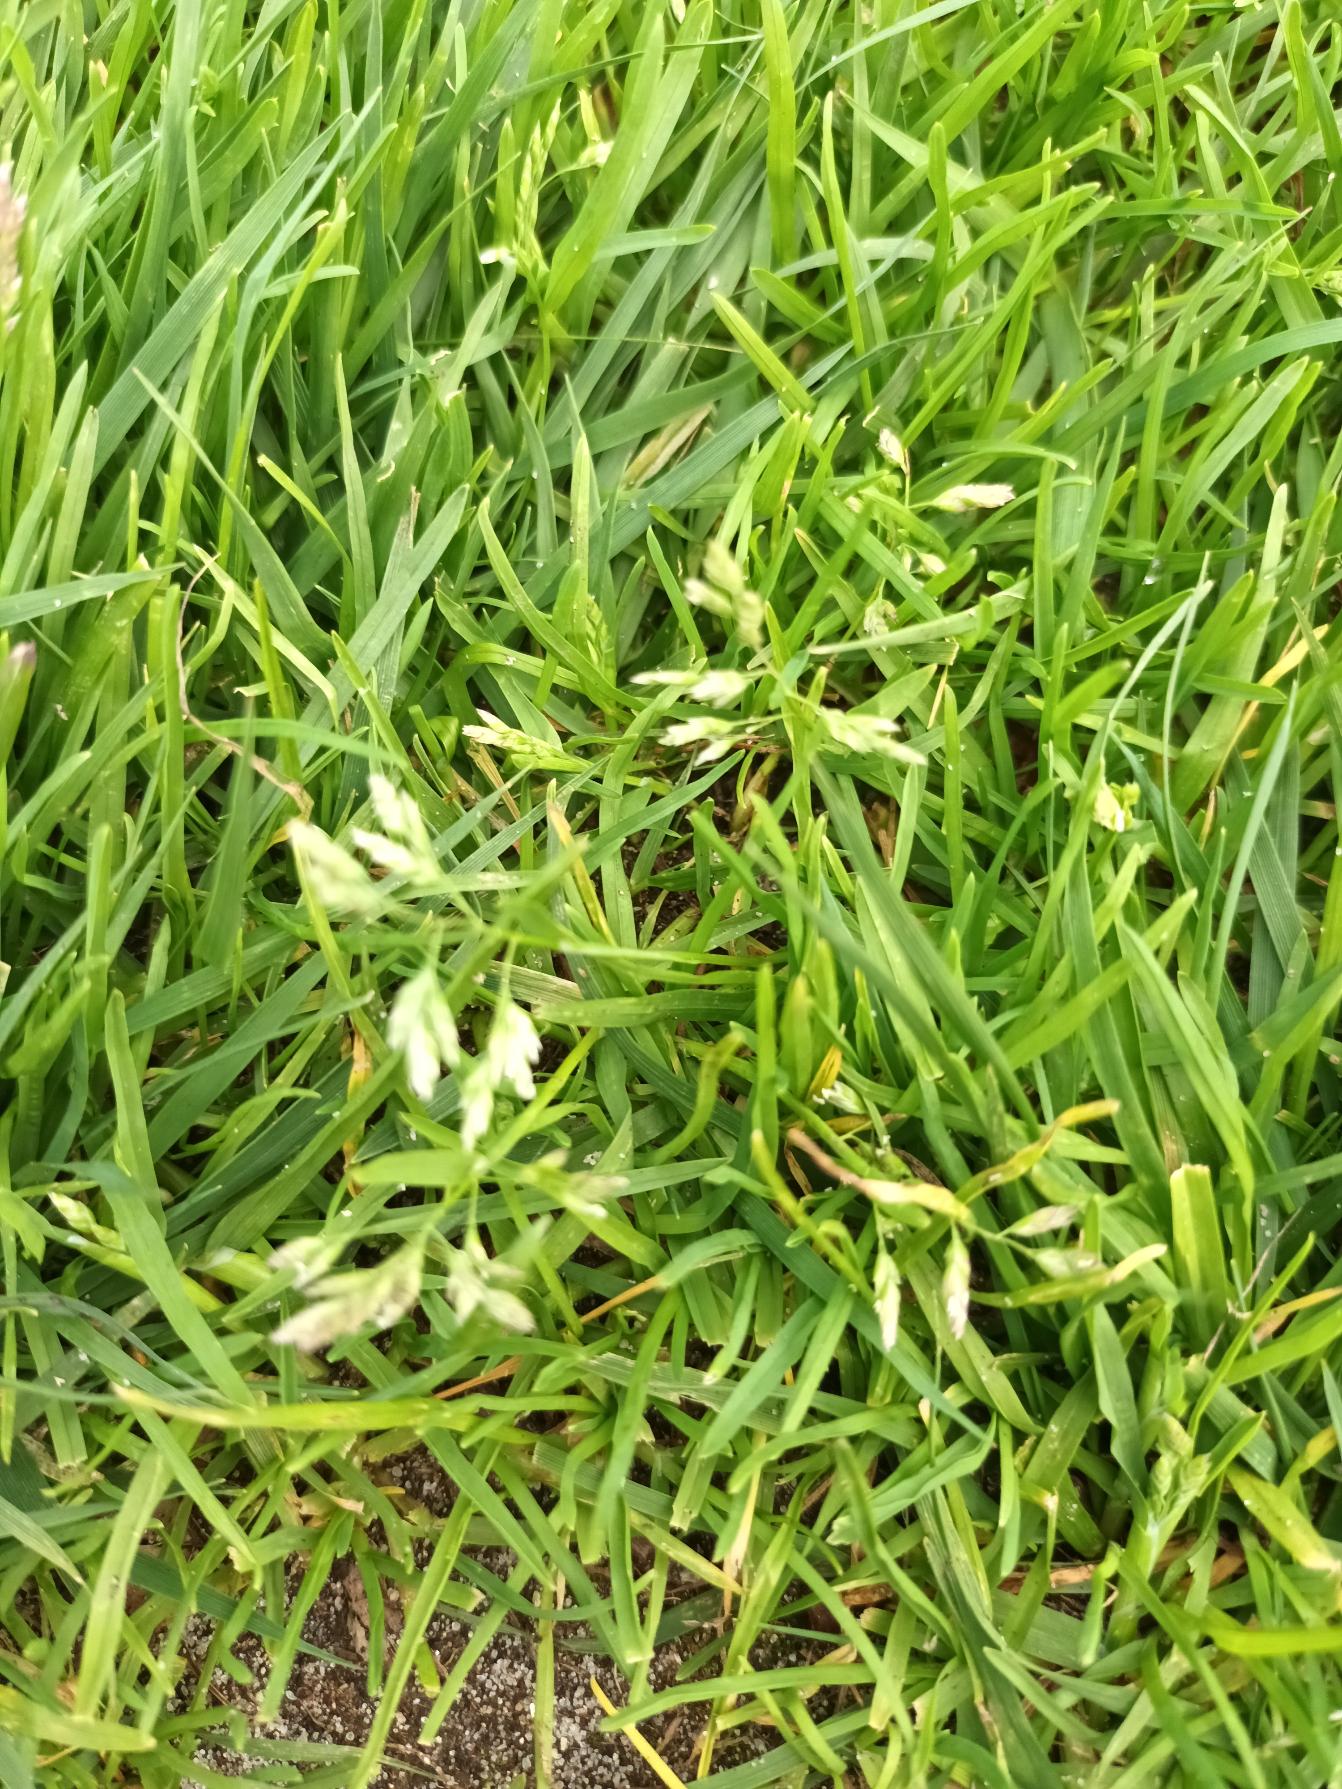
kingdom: Plantae
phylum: Tracheophyta
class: Liliopsida
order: Poales
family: Poaceae
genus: Poa
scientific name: Poa annua
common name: Enårig rapgræs
